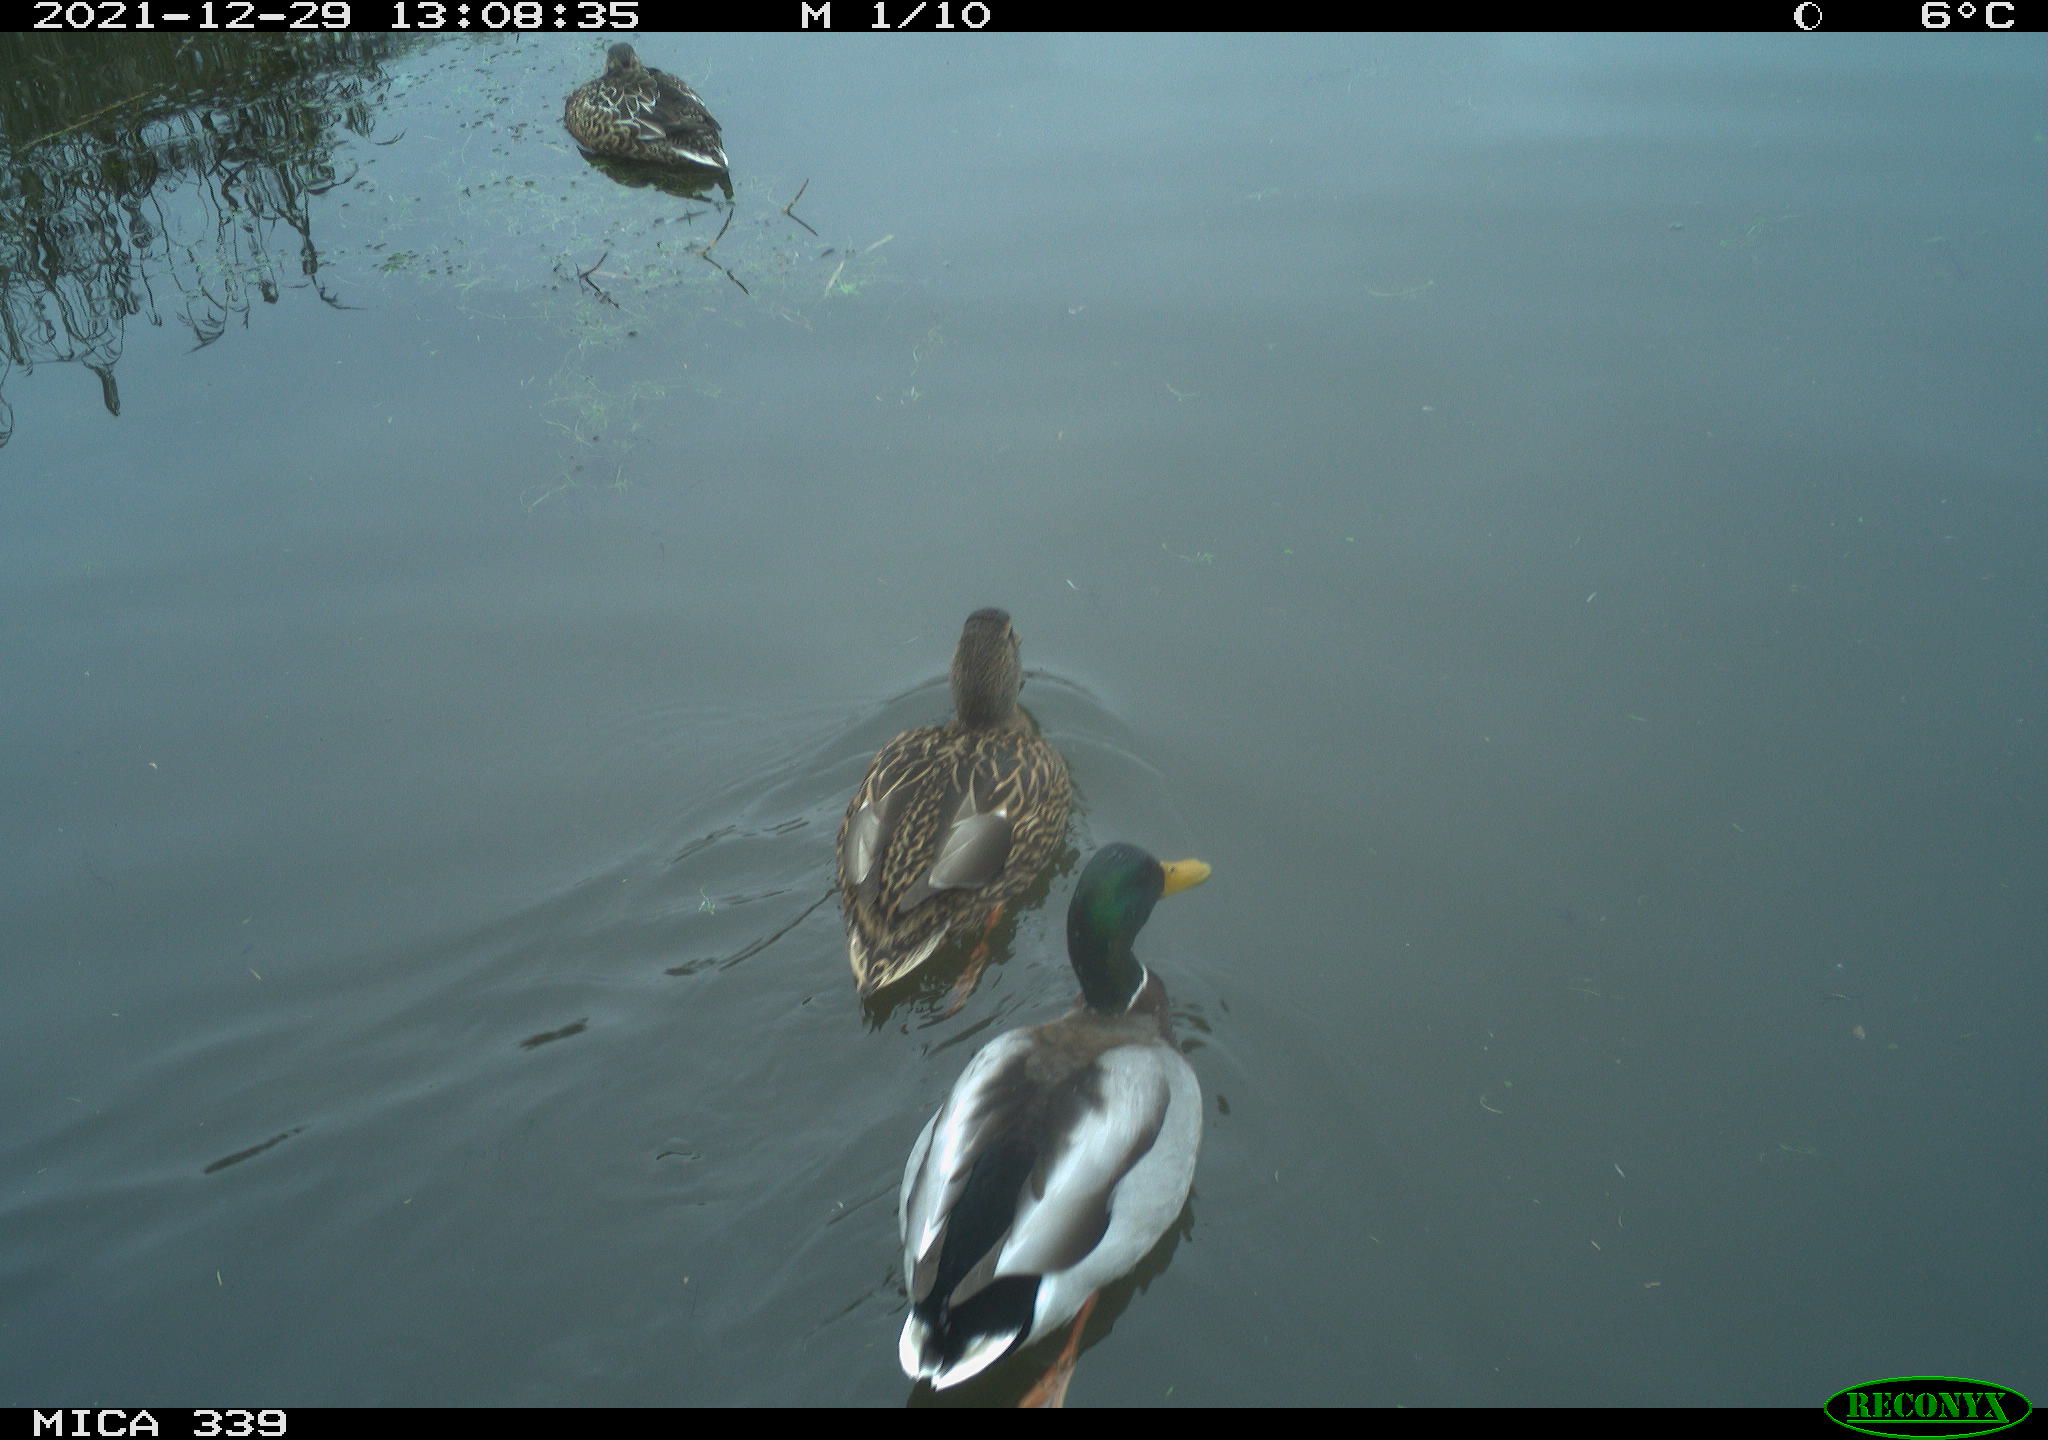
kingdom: Animalia
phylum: Chordata
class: Aves
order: Anseriformes
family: Anatidae
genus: Anas
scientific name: Anas platyrhynchos
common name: Mallard
